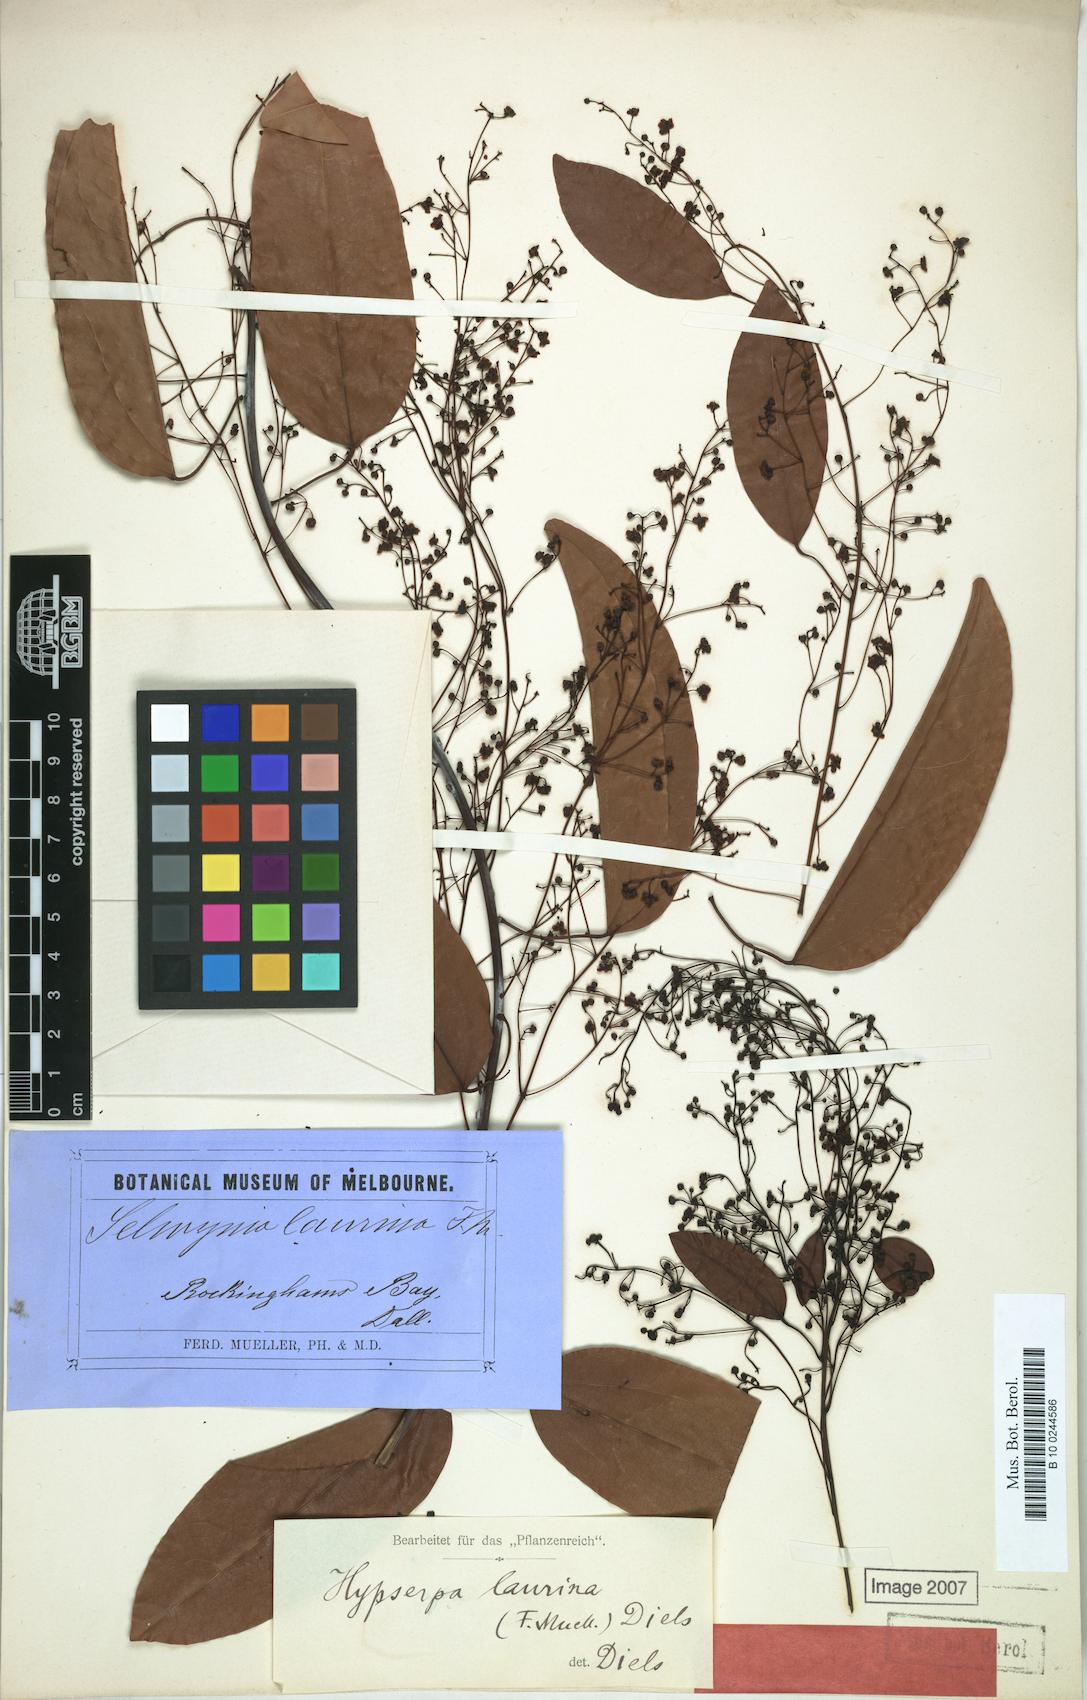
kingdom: Plantae
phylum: Tracheophyta
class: Magnoliopsida
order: Ranunculales
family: Menispermaceae
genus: Hypserpa
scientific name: Hypserpa laurina
